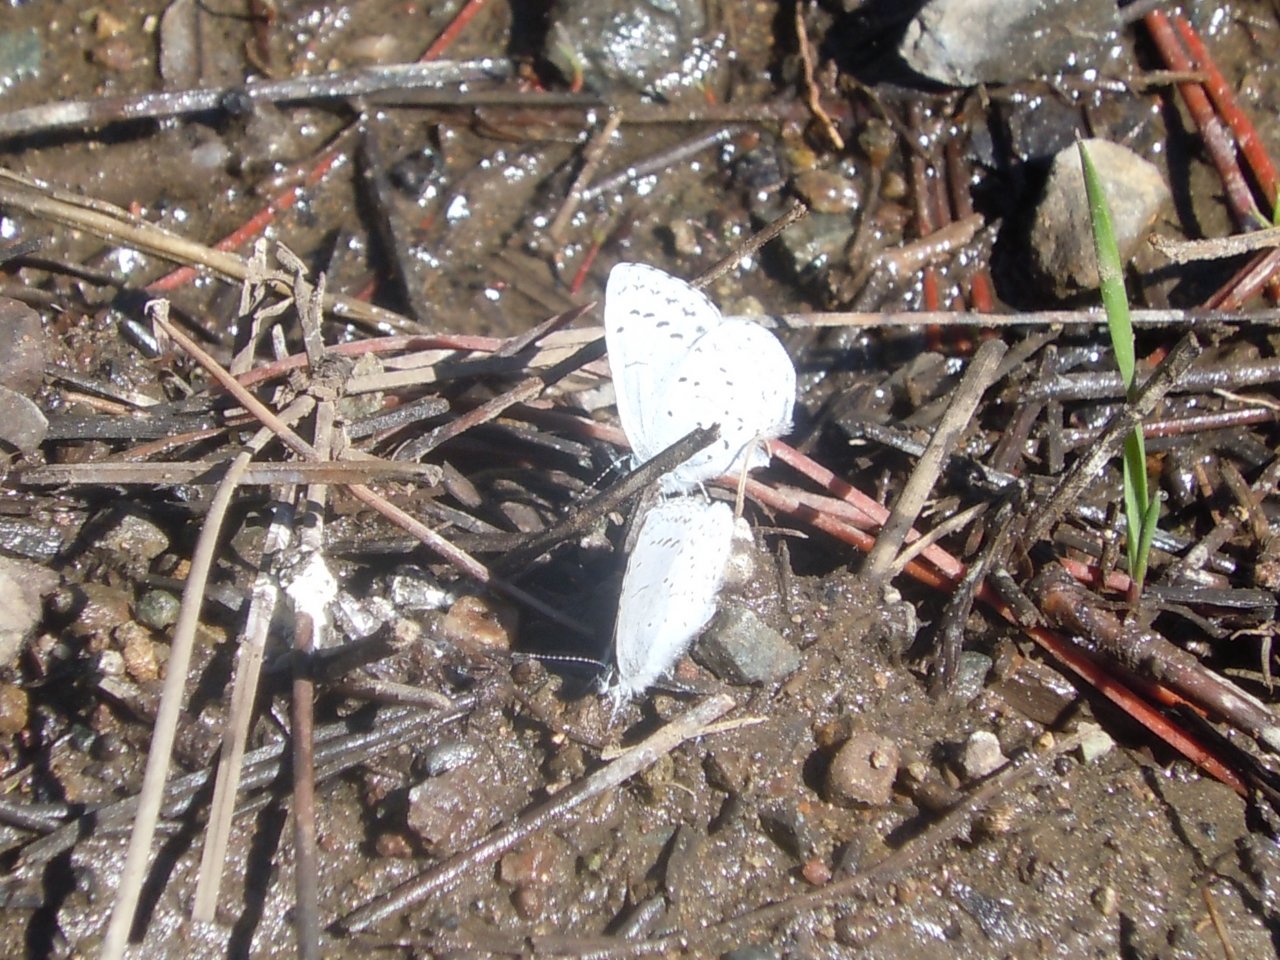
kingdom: Animalia
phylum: Arthropoda
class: Insecta
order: Lepidoptera
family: Lycaenidae
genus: Celastrina
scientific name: Celastrina ladon
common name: Spring Azure
